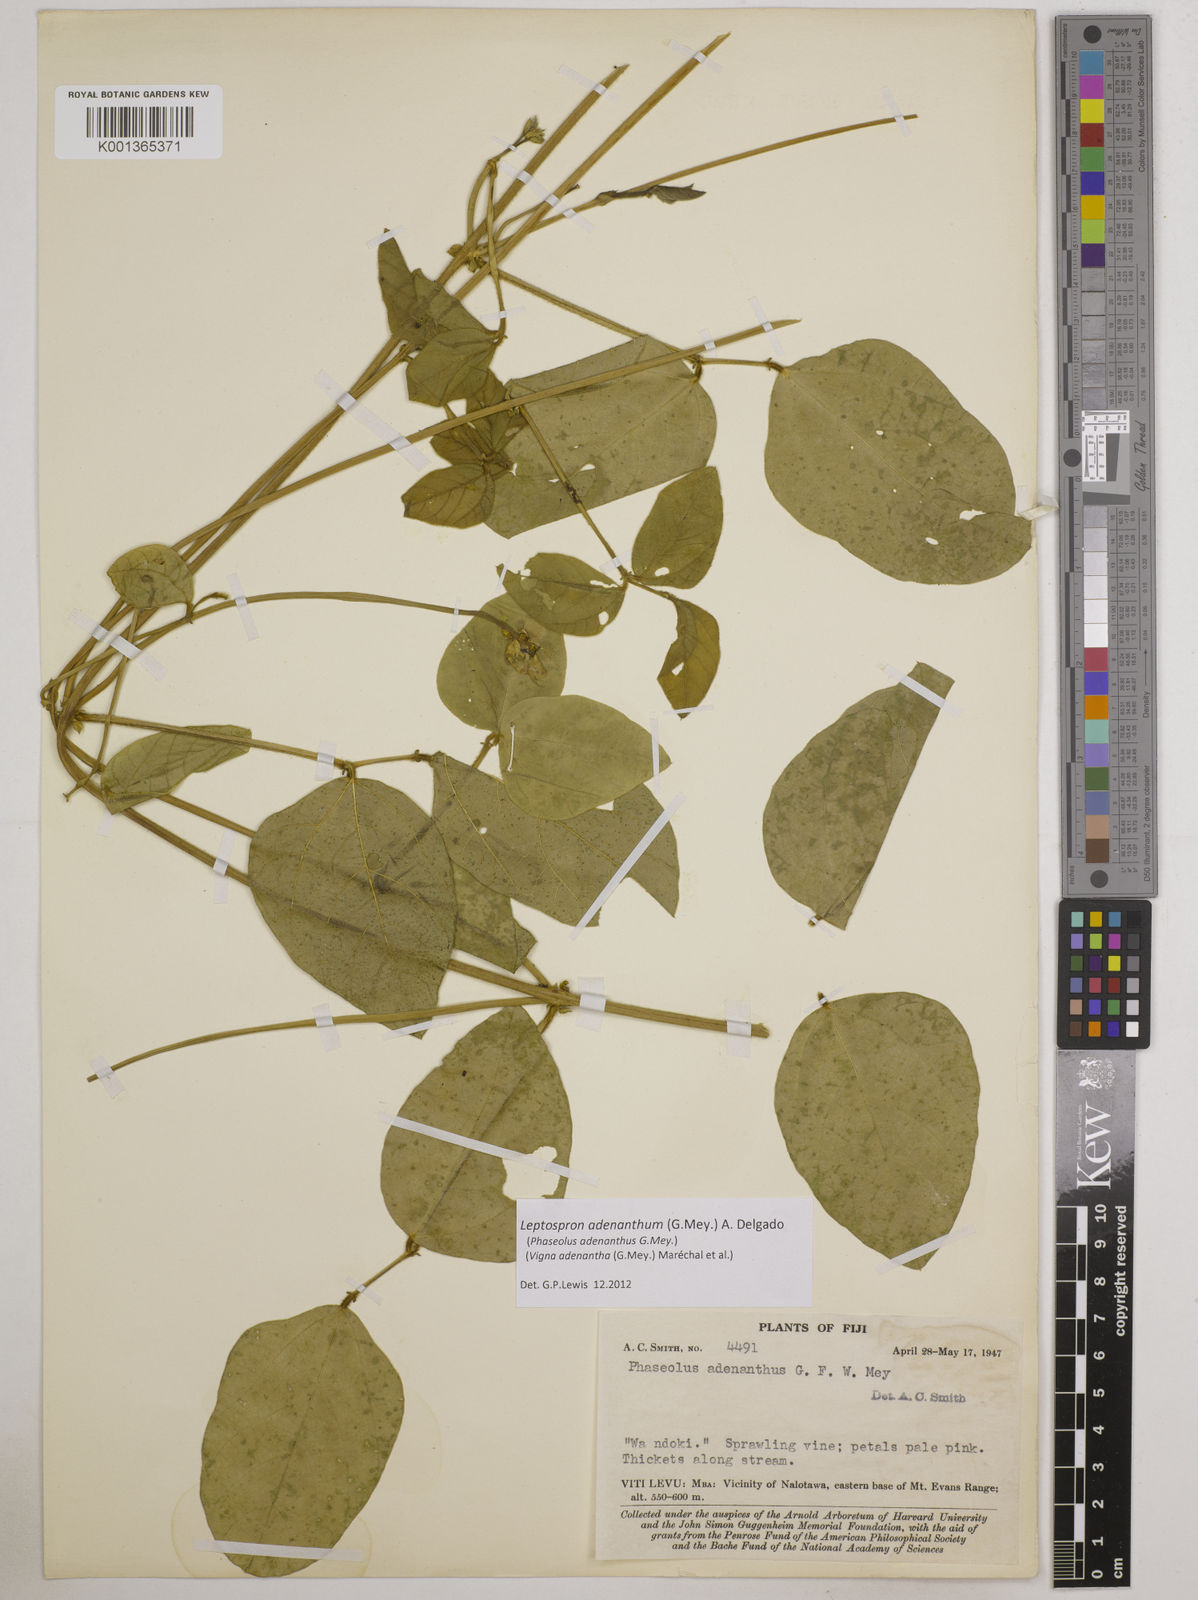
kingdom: Plantae
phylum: Tracheophyta
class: Magnoliopsida
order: Fabales
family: Fabaceae
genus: Leptospron
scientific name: Leptospron adenanthum
